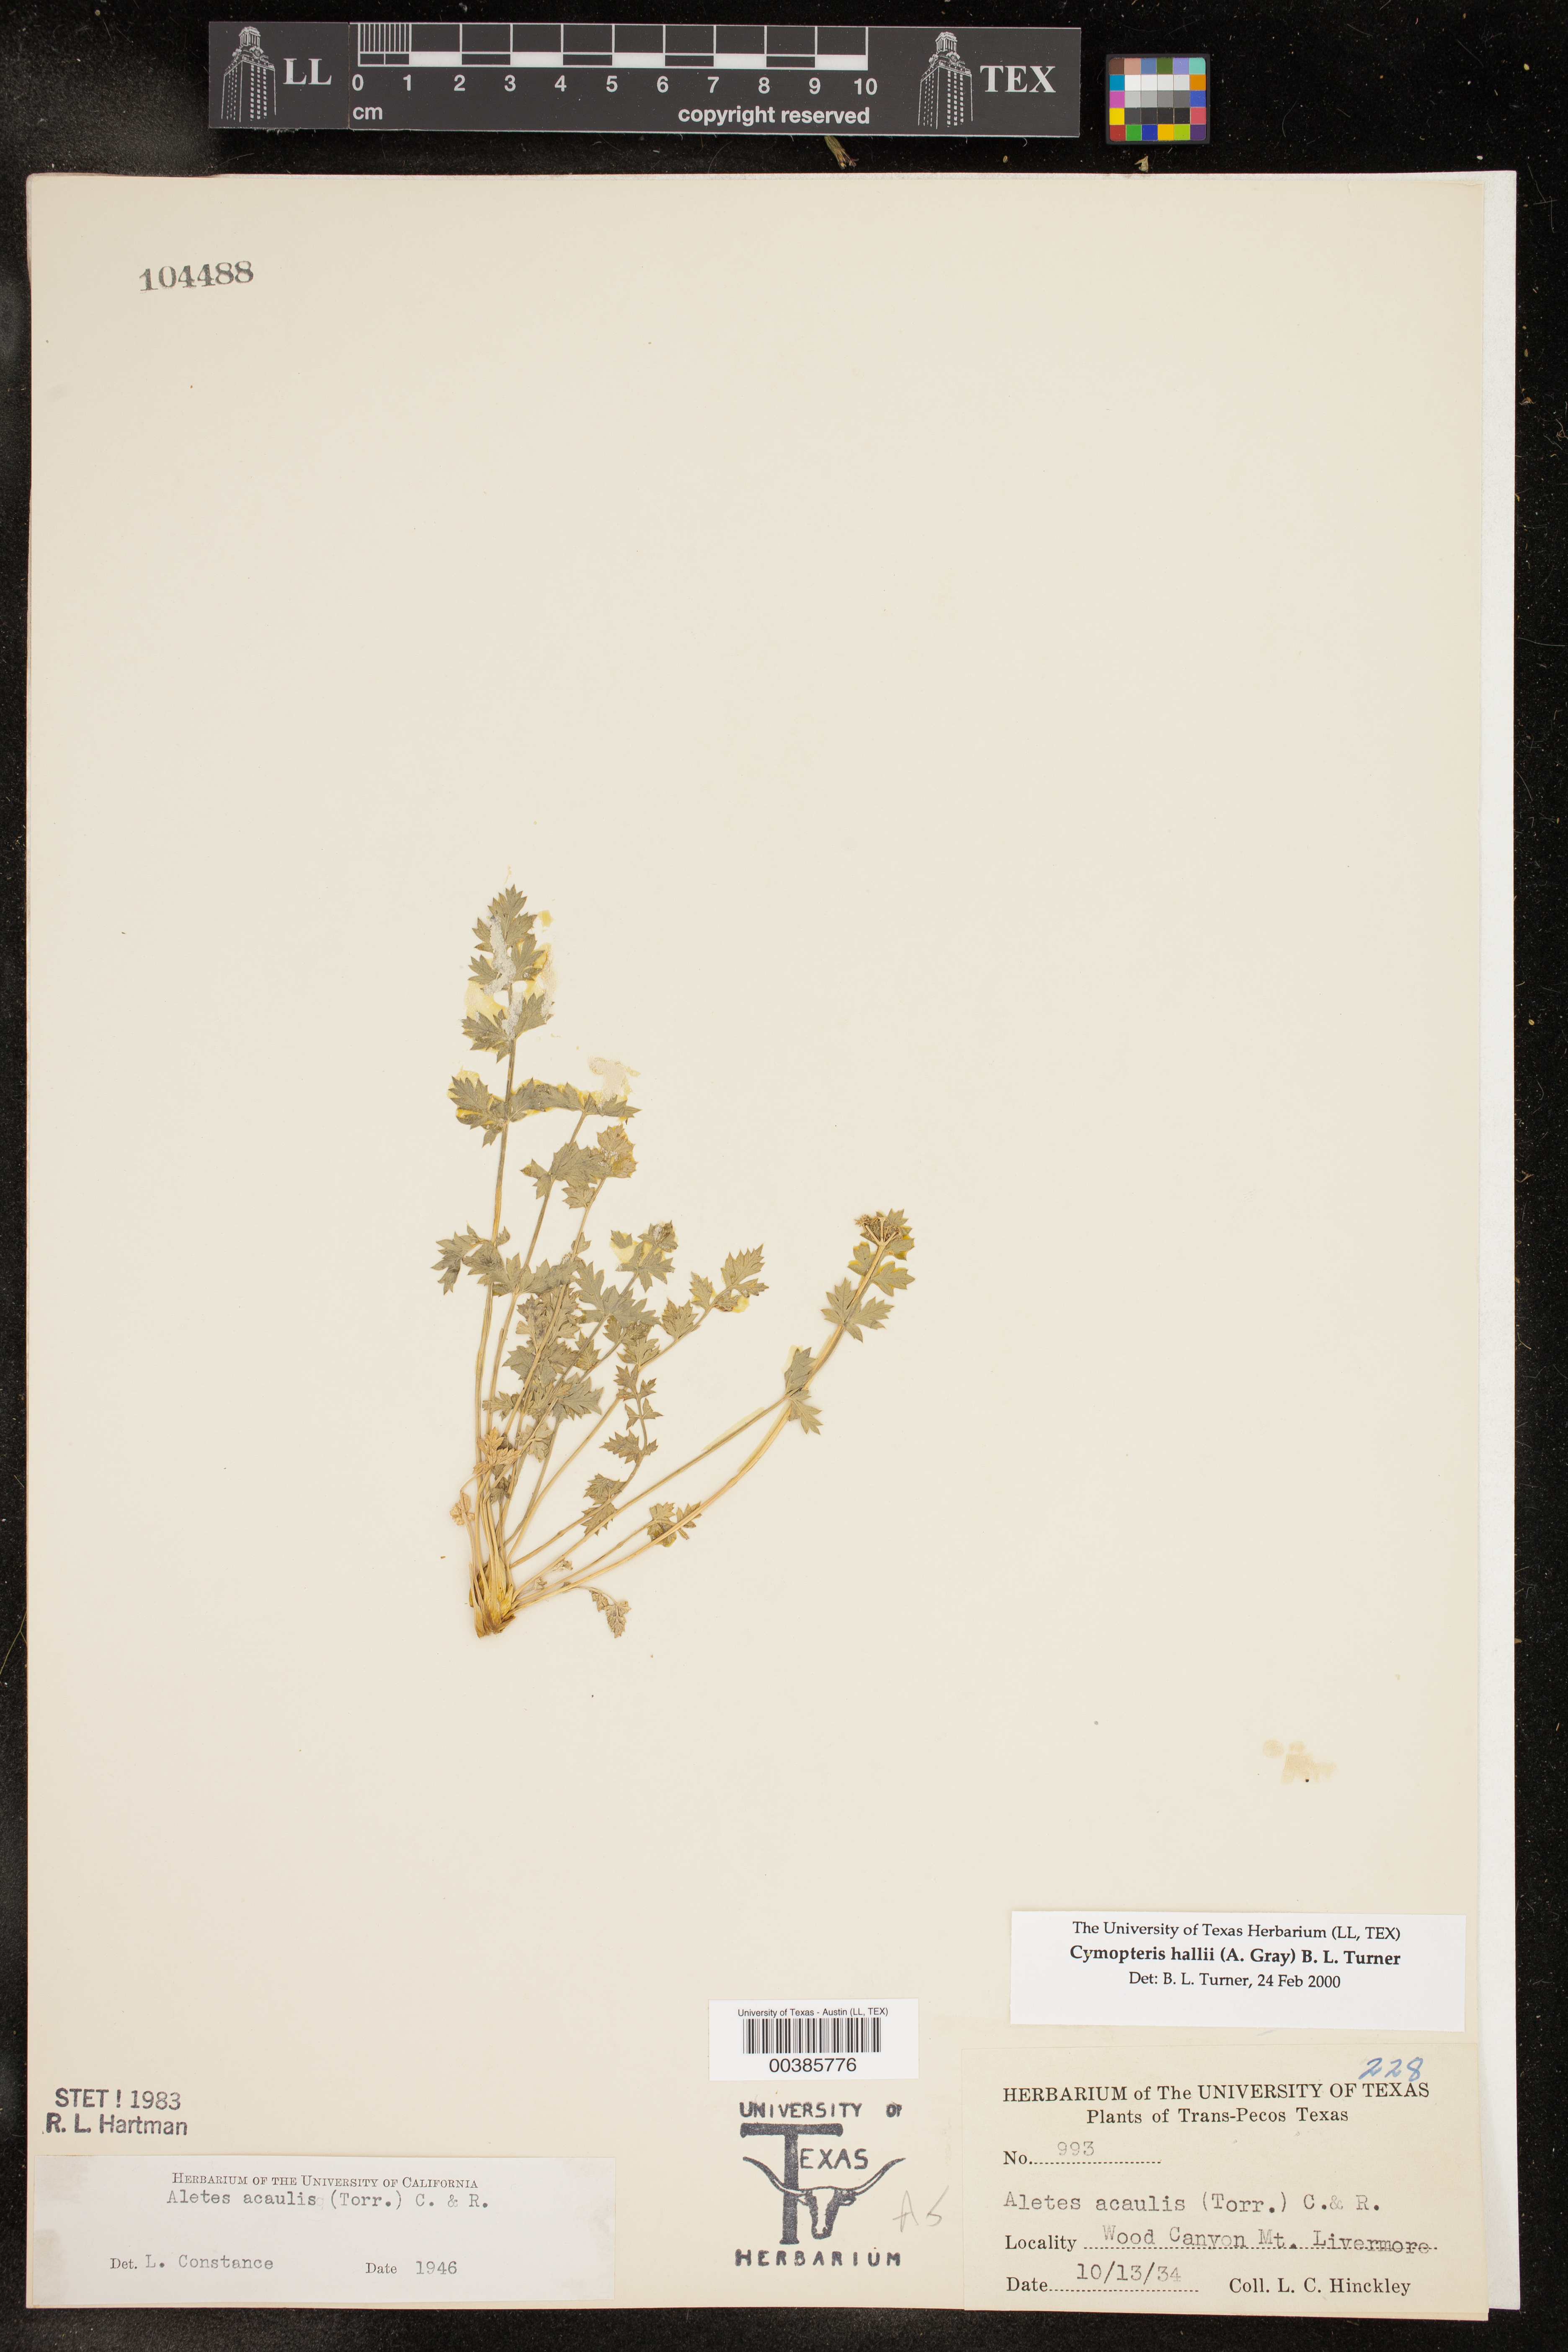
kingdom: Plantae
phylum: Tracheophyta
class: Magnoliopsida
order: Apiales
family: Apiaceae
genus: Cymopterus
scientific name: Cymopterus hallii
